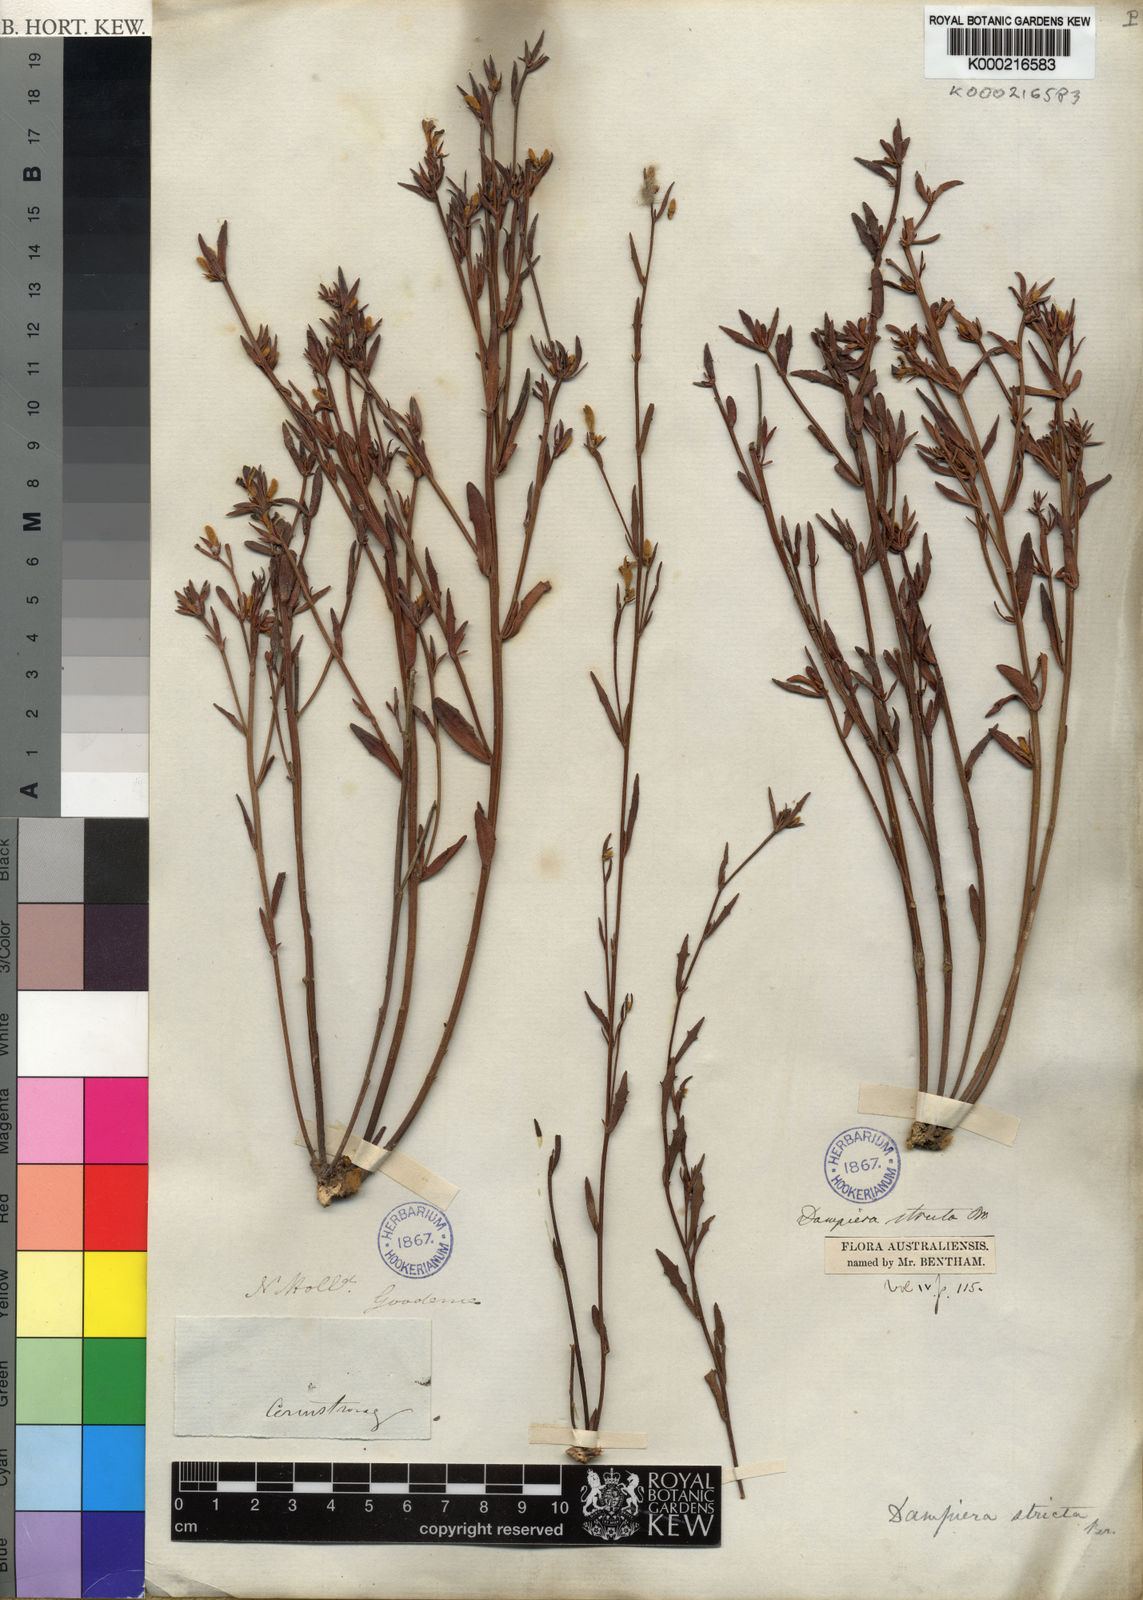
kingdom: Plantae
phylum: Tracheophyta
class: Magnoliopsida
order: Asterales
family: Goodeniaceae
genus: Dampiera
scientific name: Dampiera stricta
